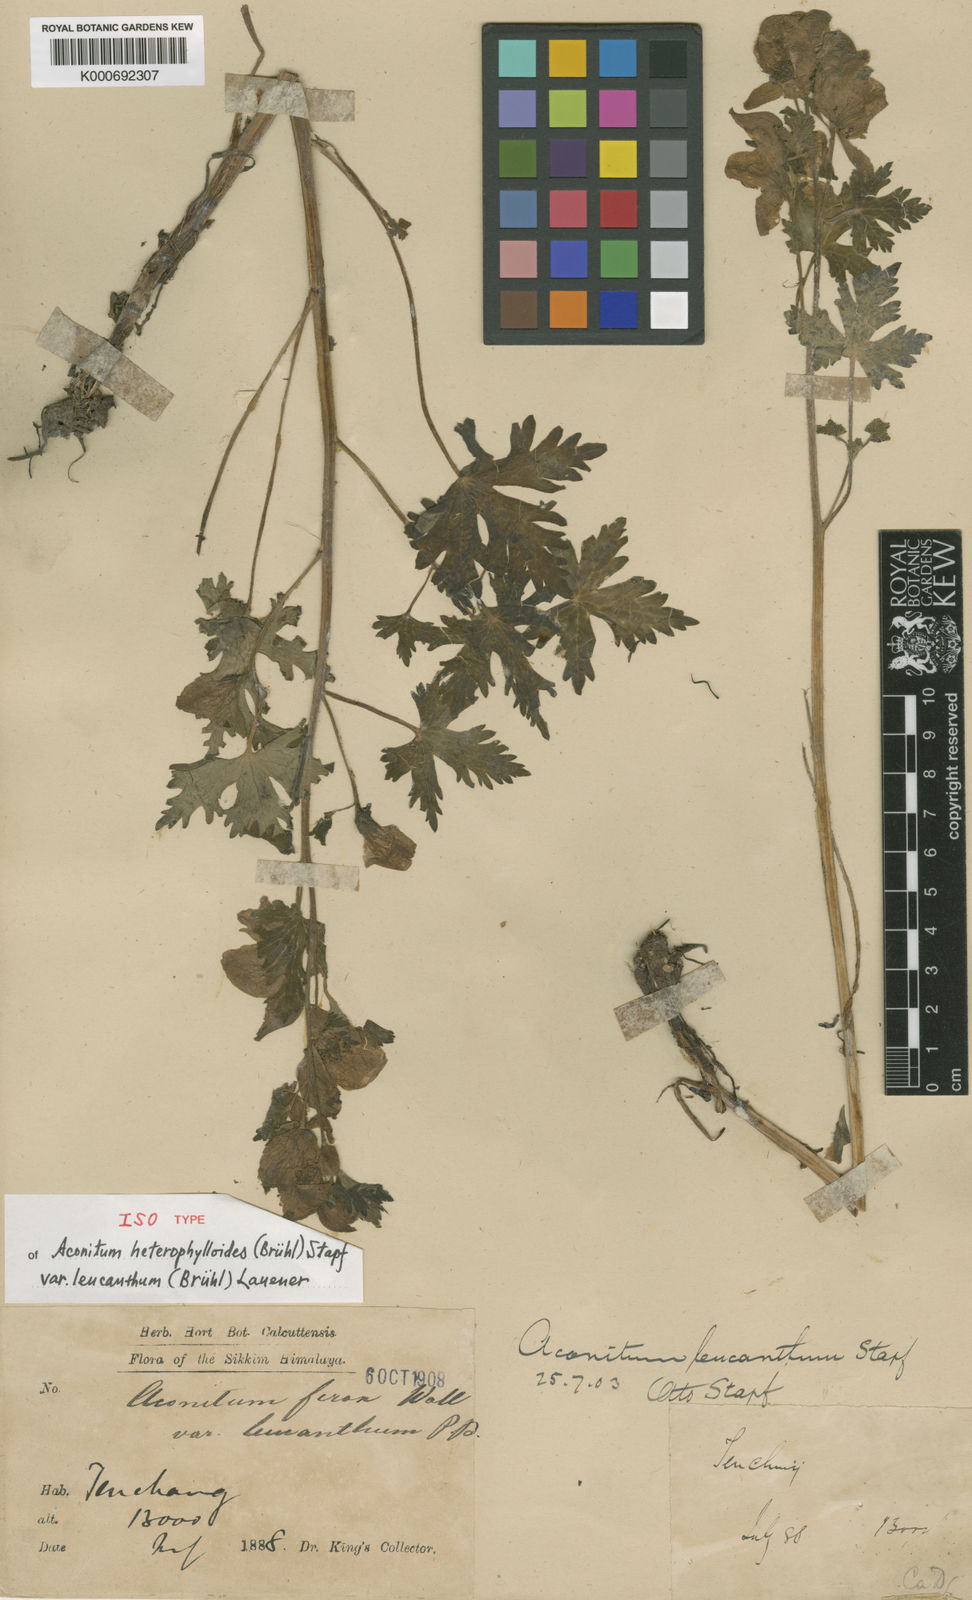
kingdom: Plantae
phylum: Tracheophyta
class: Magnoliopsida
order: Ranunculales
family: Ranunculaceae
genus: Aconitum
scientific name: Aconitum
